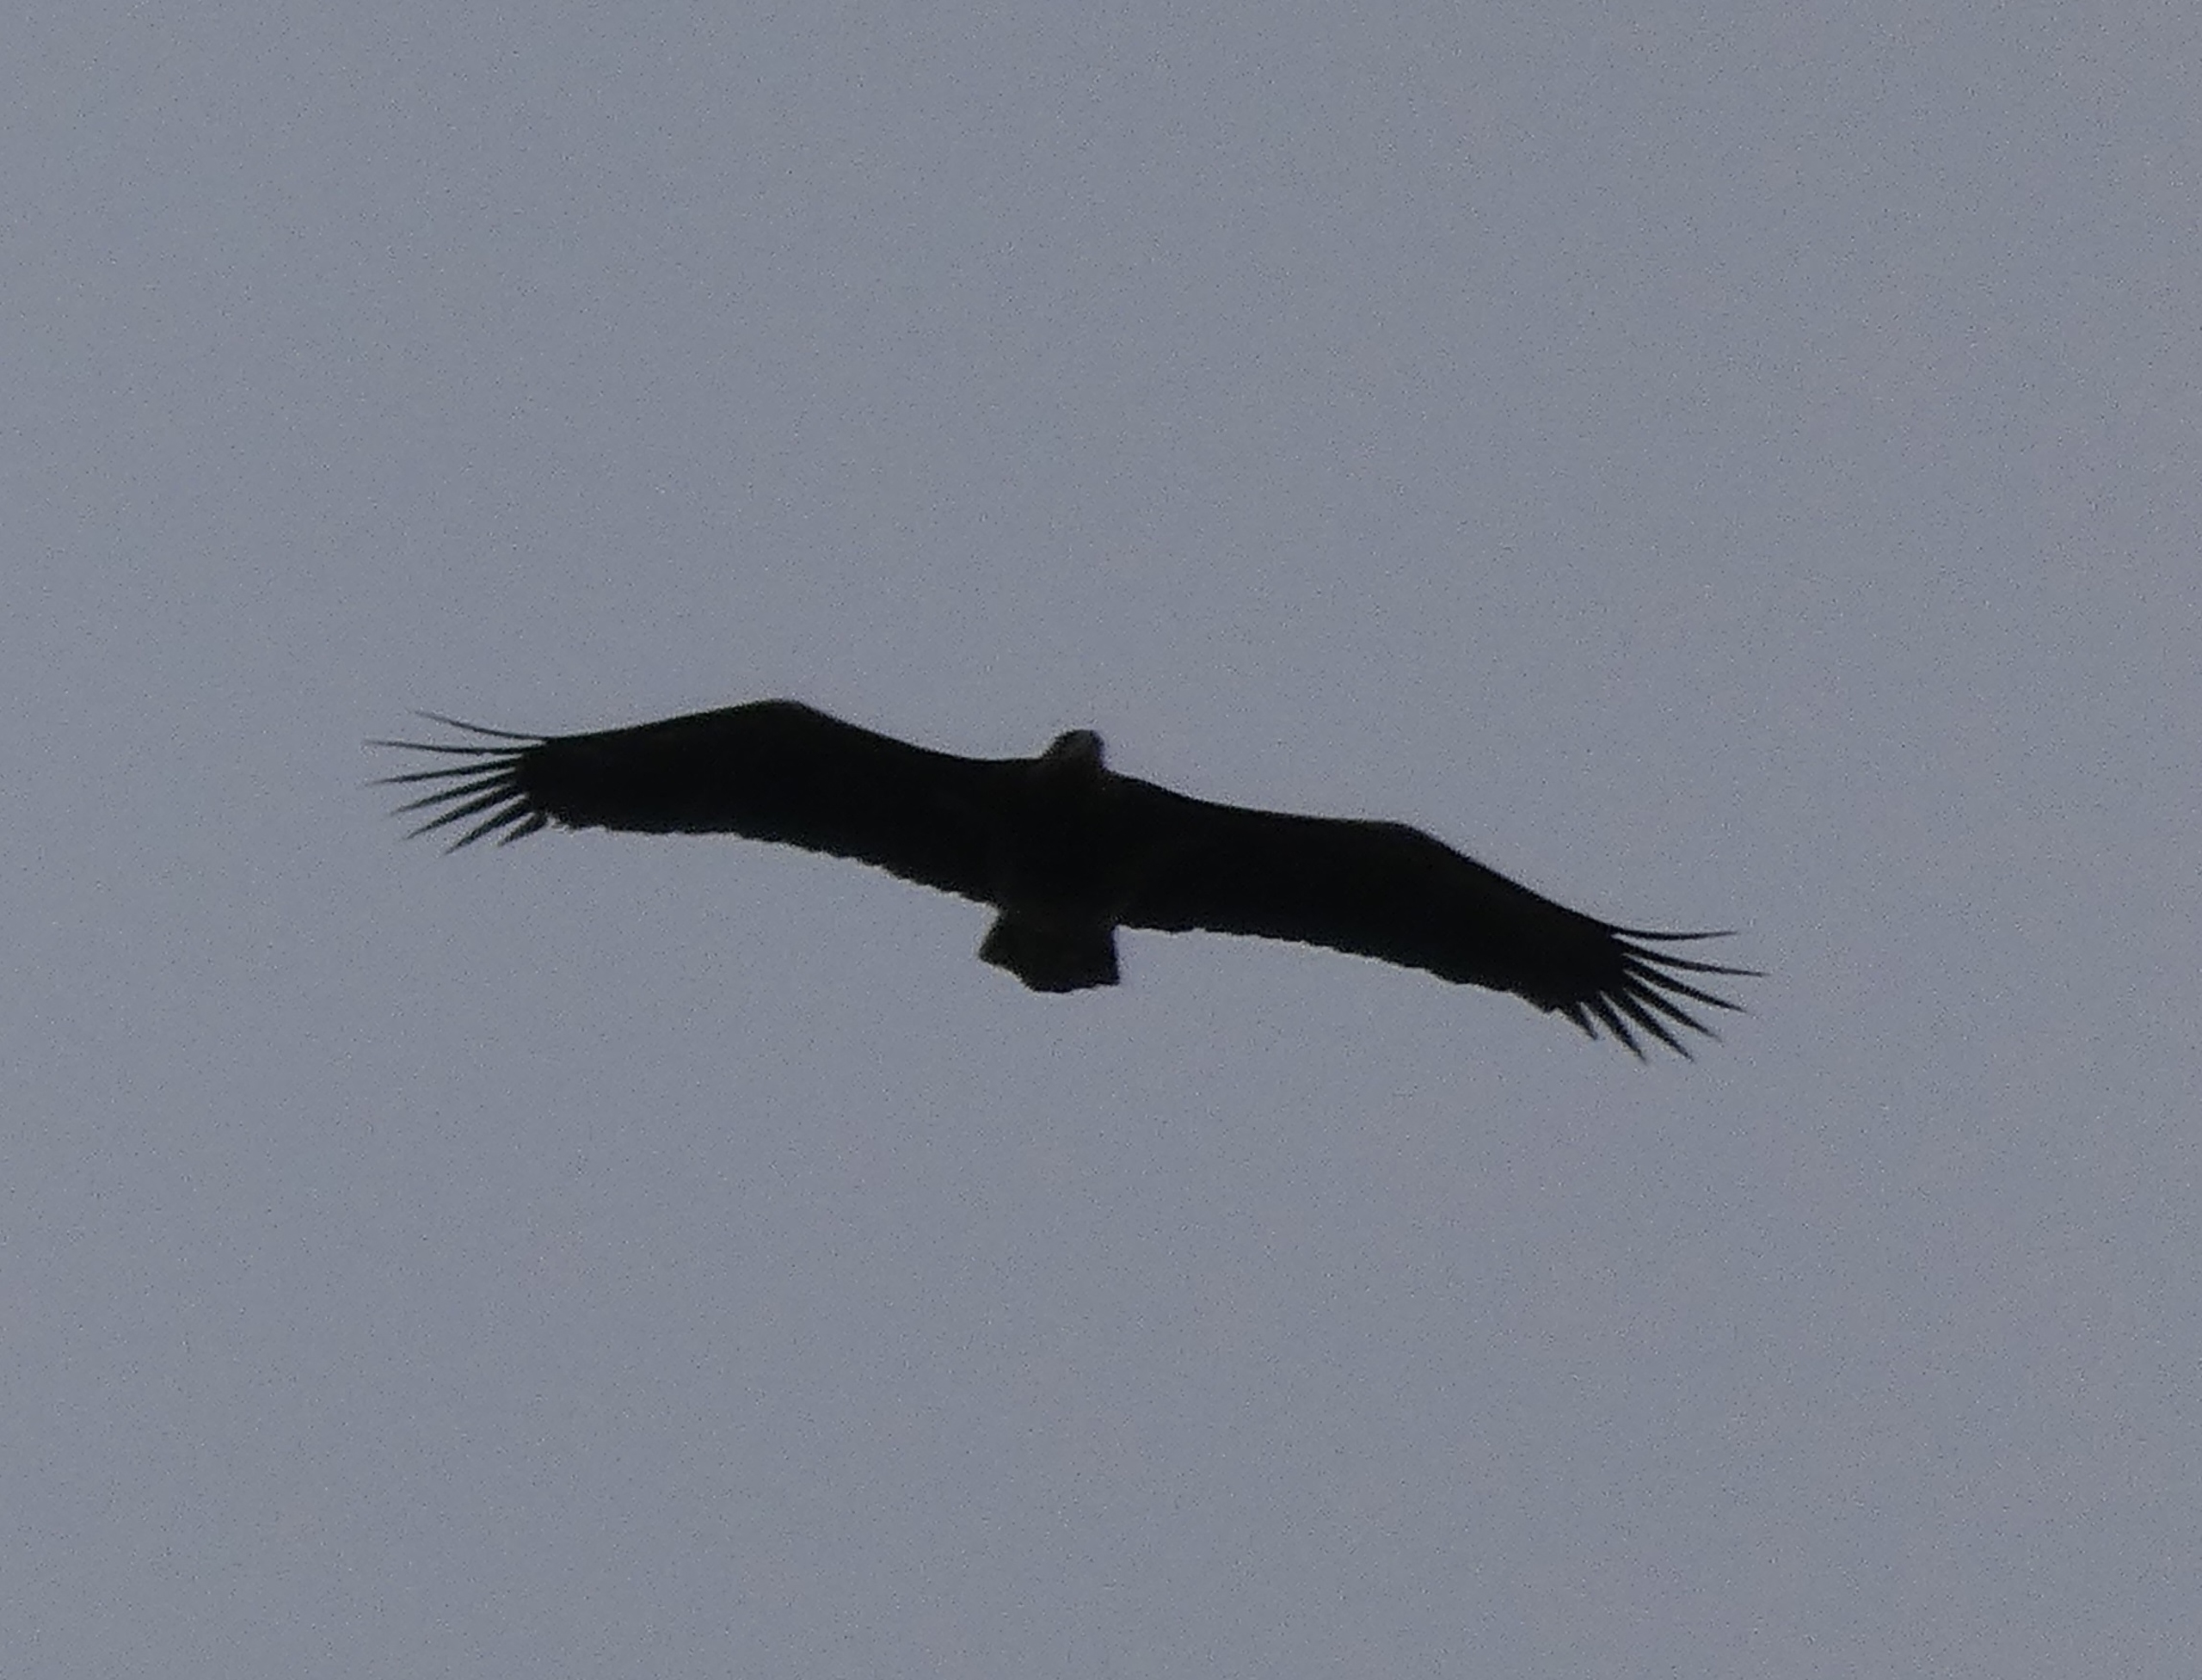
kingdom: Animalia
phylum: Chordata
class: Aves
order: Accipitriformes
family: Accipitridae
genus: Haliaeetus
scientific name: Haliaeetus albicilla
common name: Havørn
